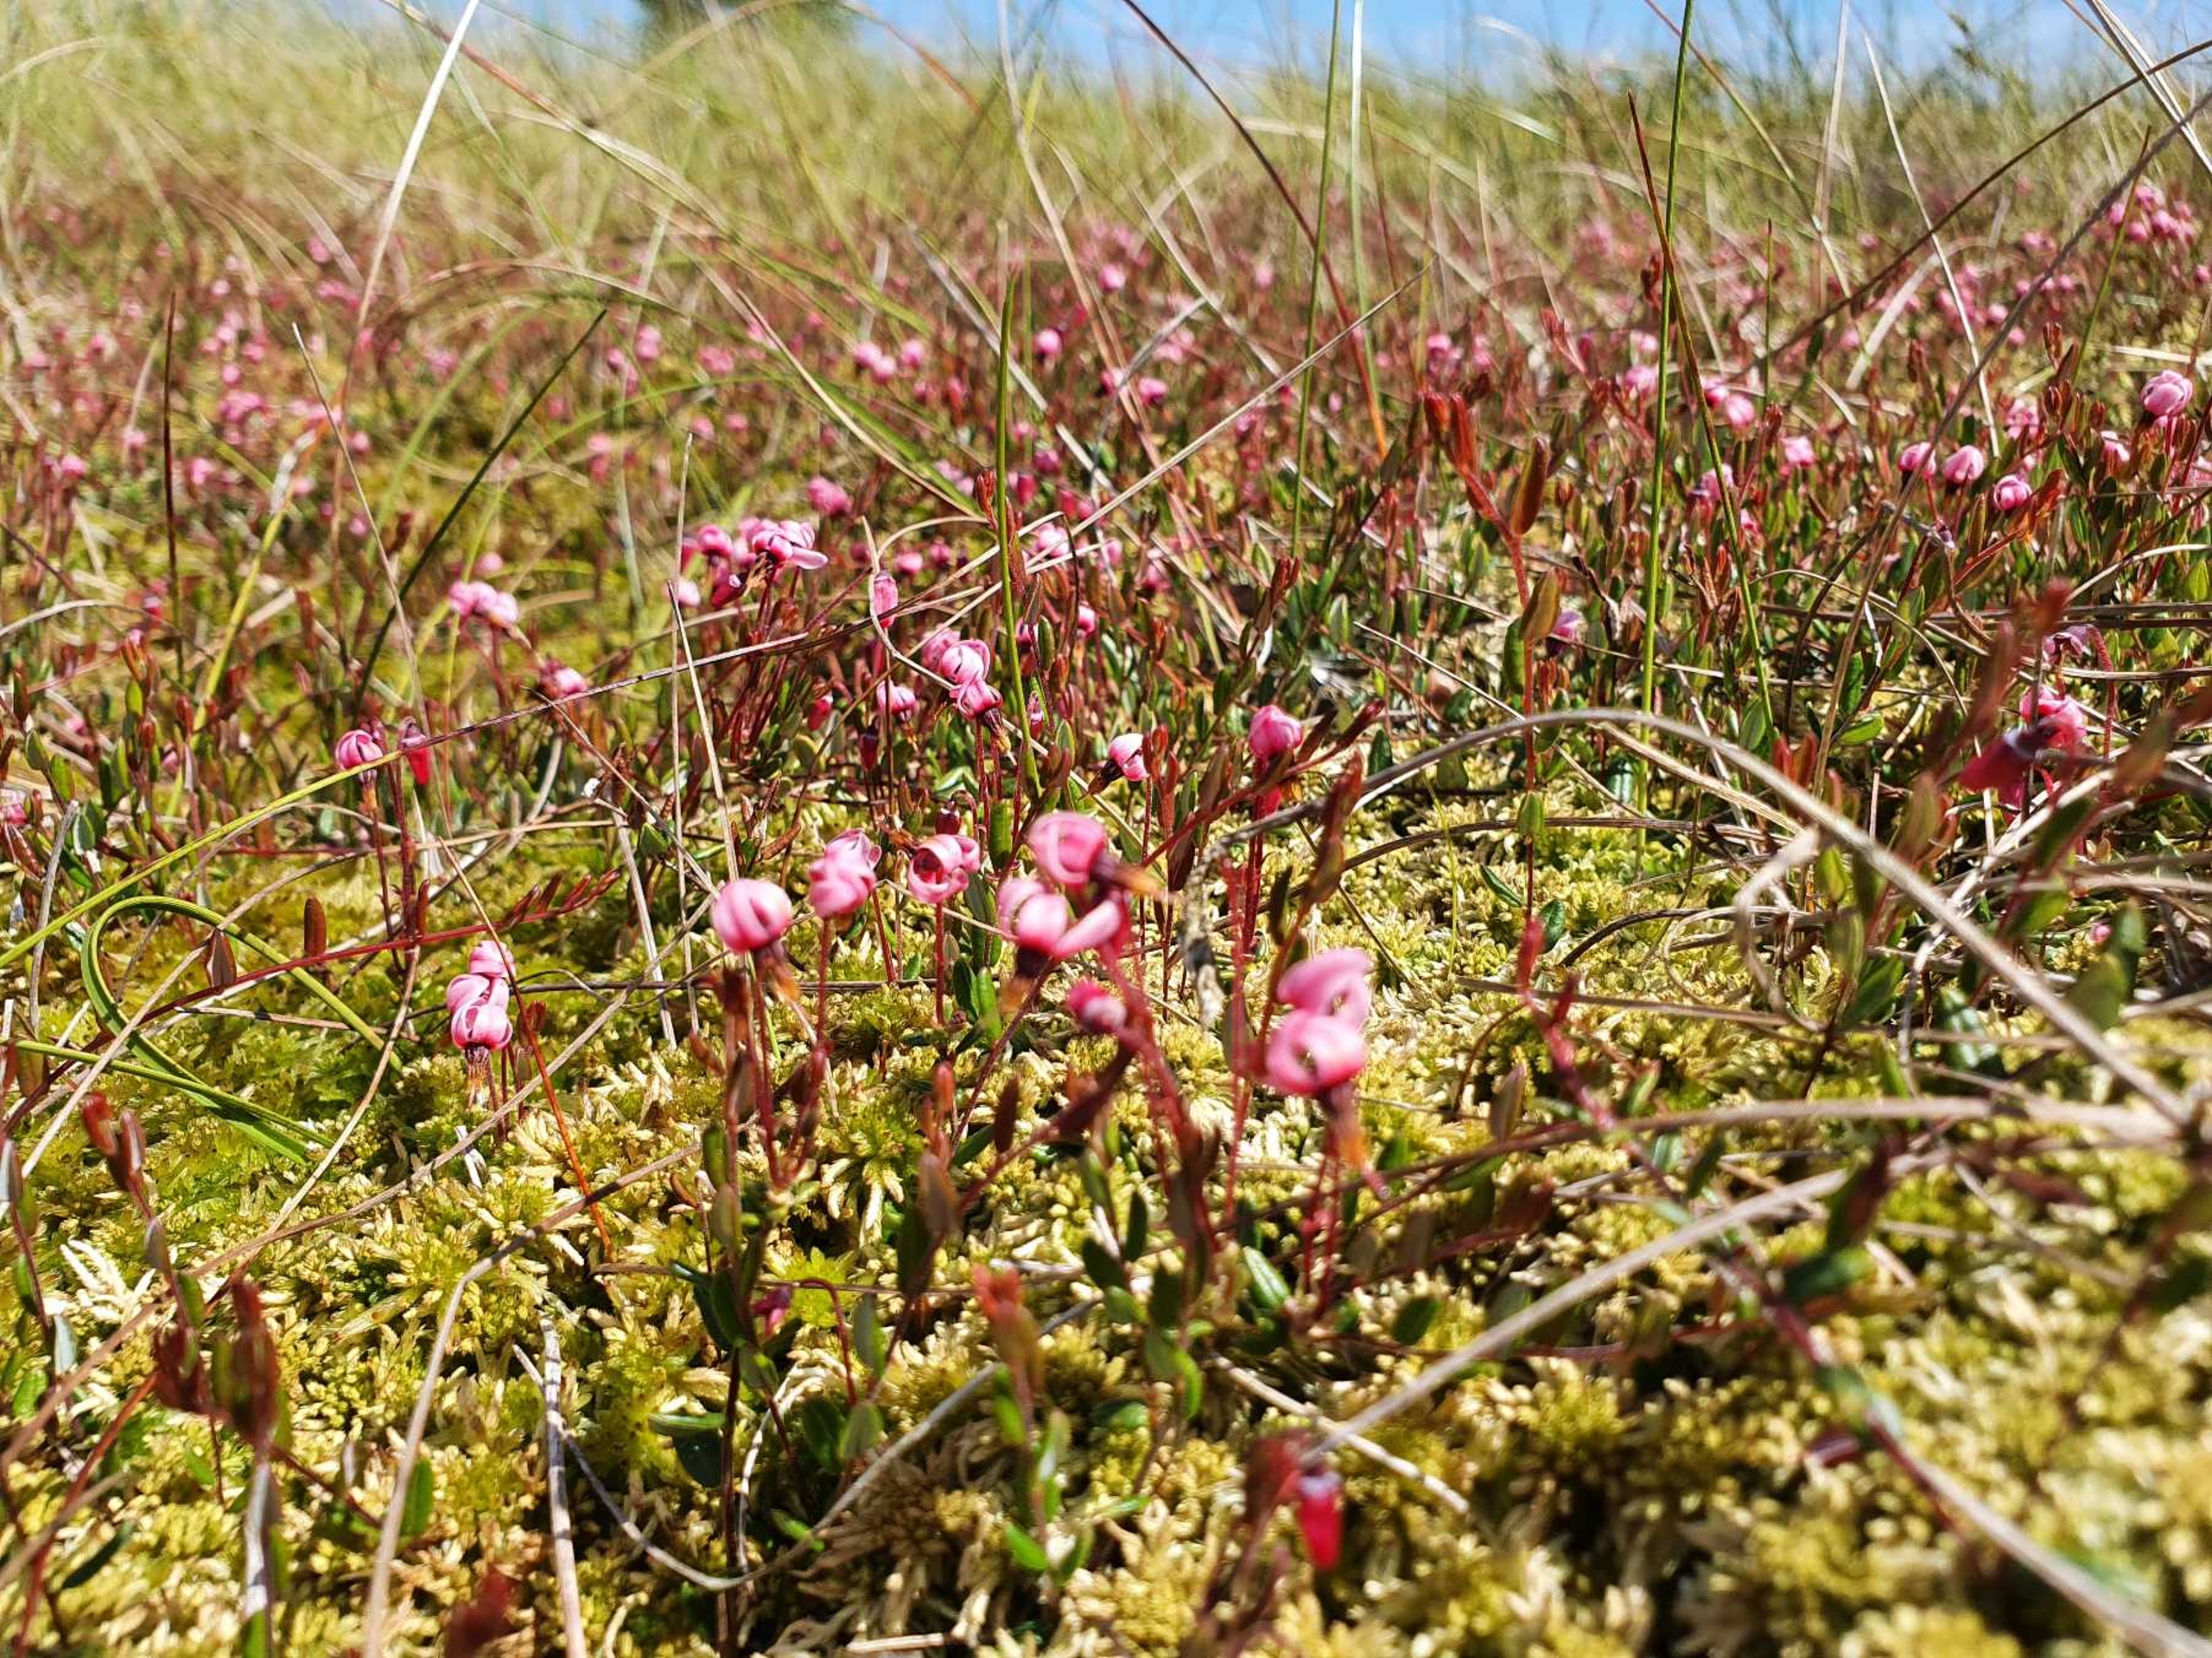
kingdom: Plantae
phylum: Tracheophyta
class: Magnoliopsida
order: Ericales
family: Ericaceae
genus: Vaccinium
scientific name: Vaccinium oxycoccos
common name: Tranebær
